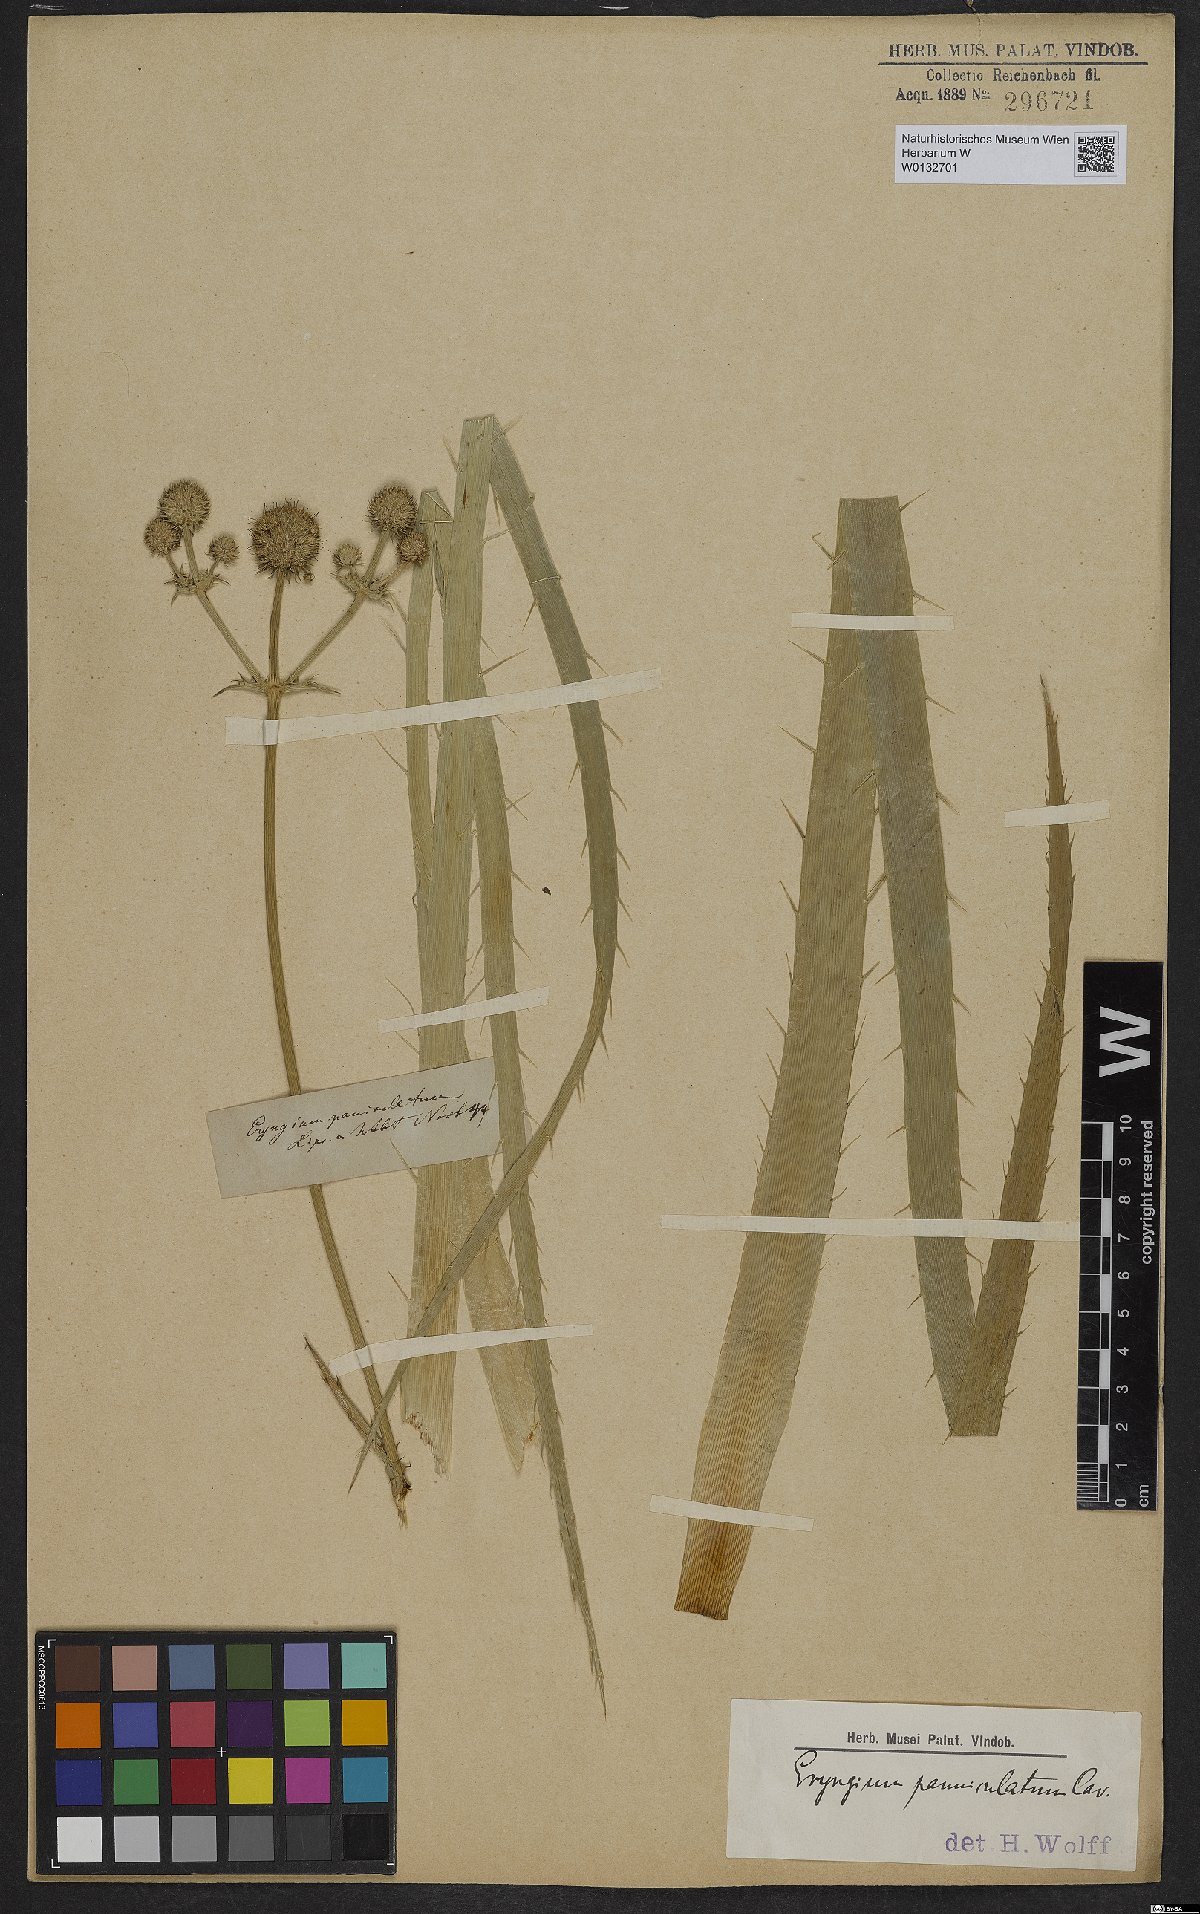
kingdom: Plantae
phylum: Tracheophyta
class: Magnoliopsida
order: Apiales
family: Apiaceae
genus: Eryngium
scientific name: Eryngium humboldtii
